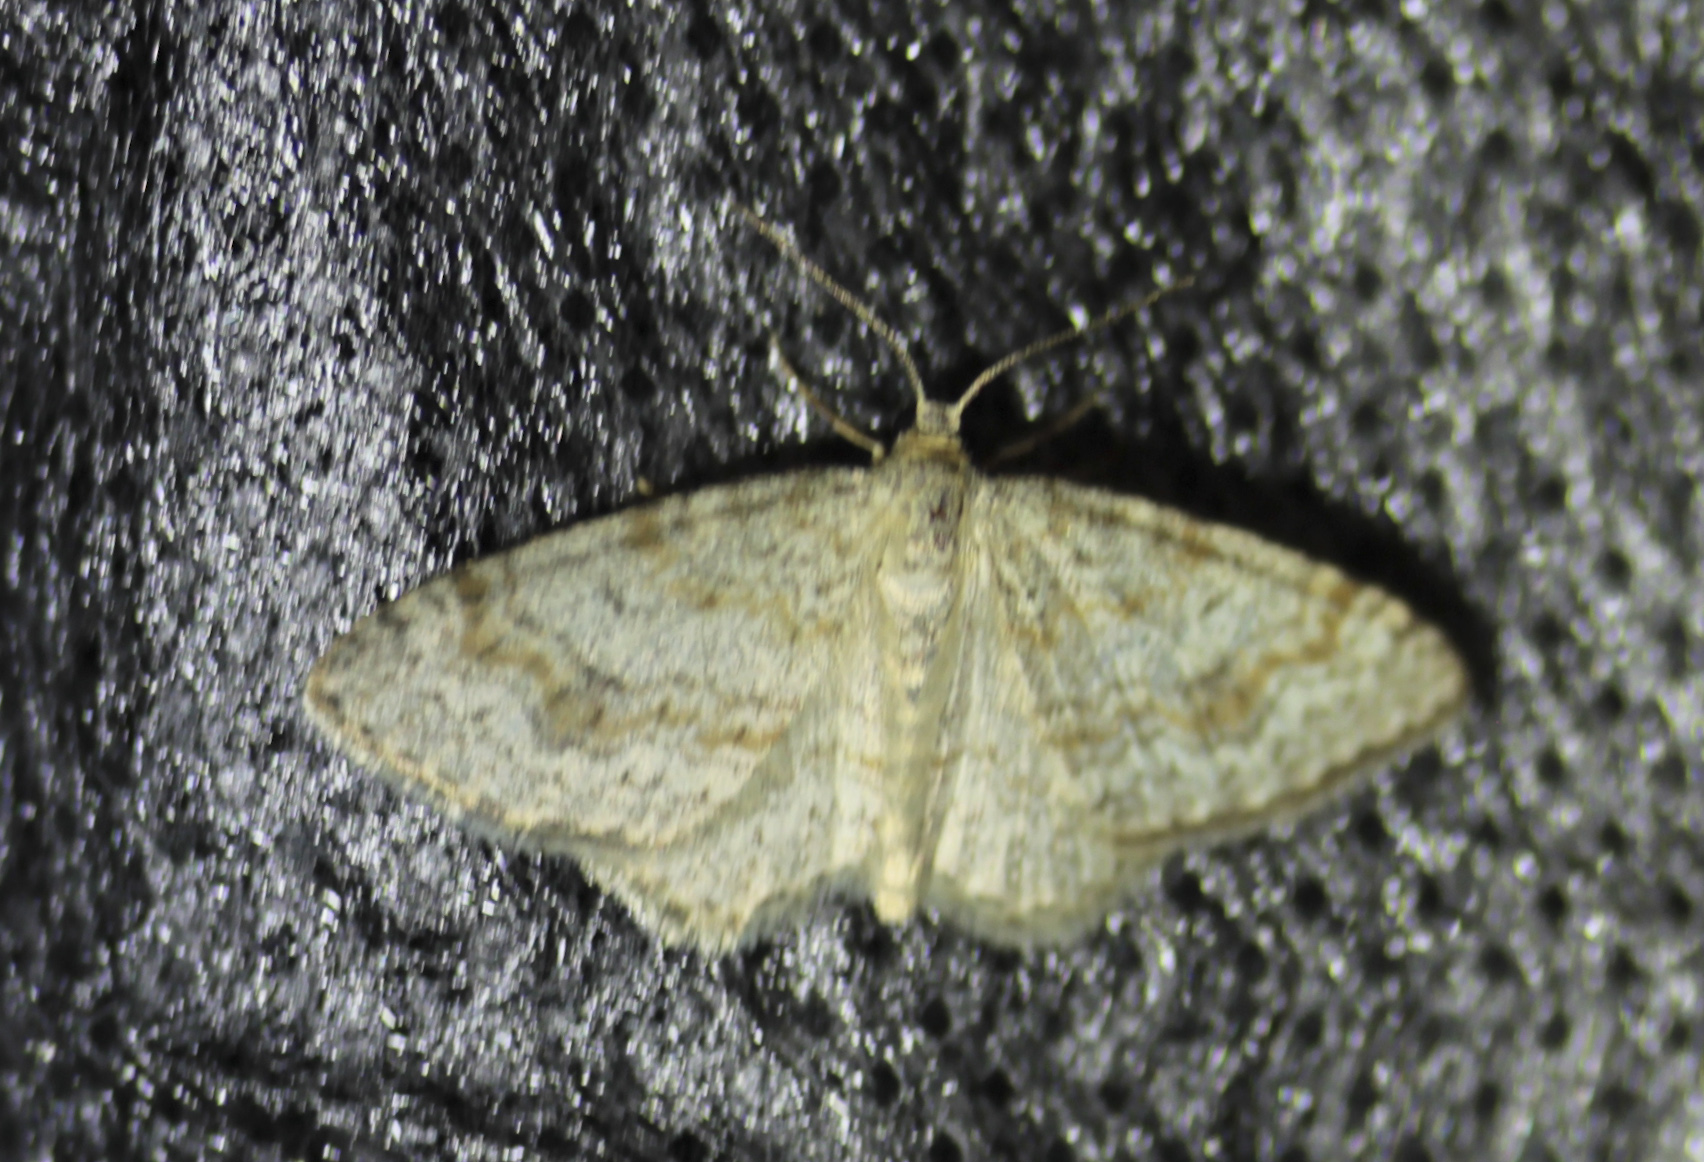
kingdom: Animalia
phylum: Arthropoda
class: Insecta
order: Lepidoptera
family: Geometridae
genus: Hydrelia
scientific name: Hydrelia sylvata
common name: Waved carpet
